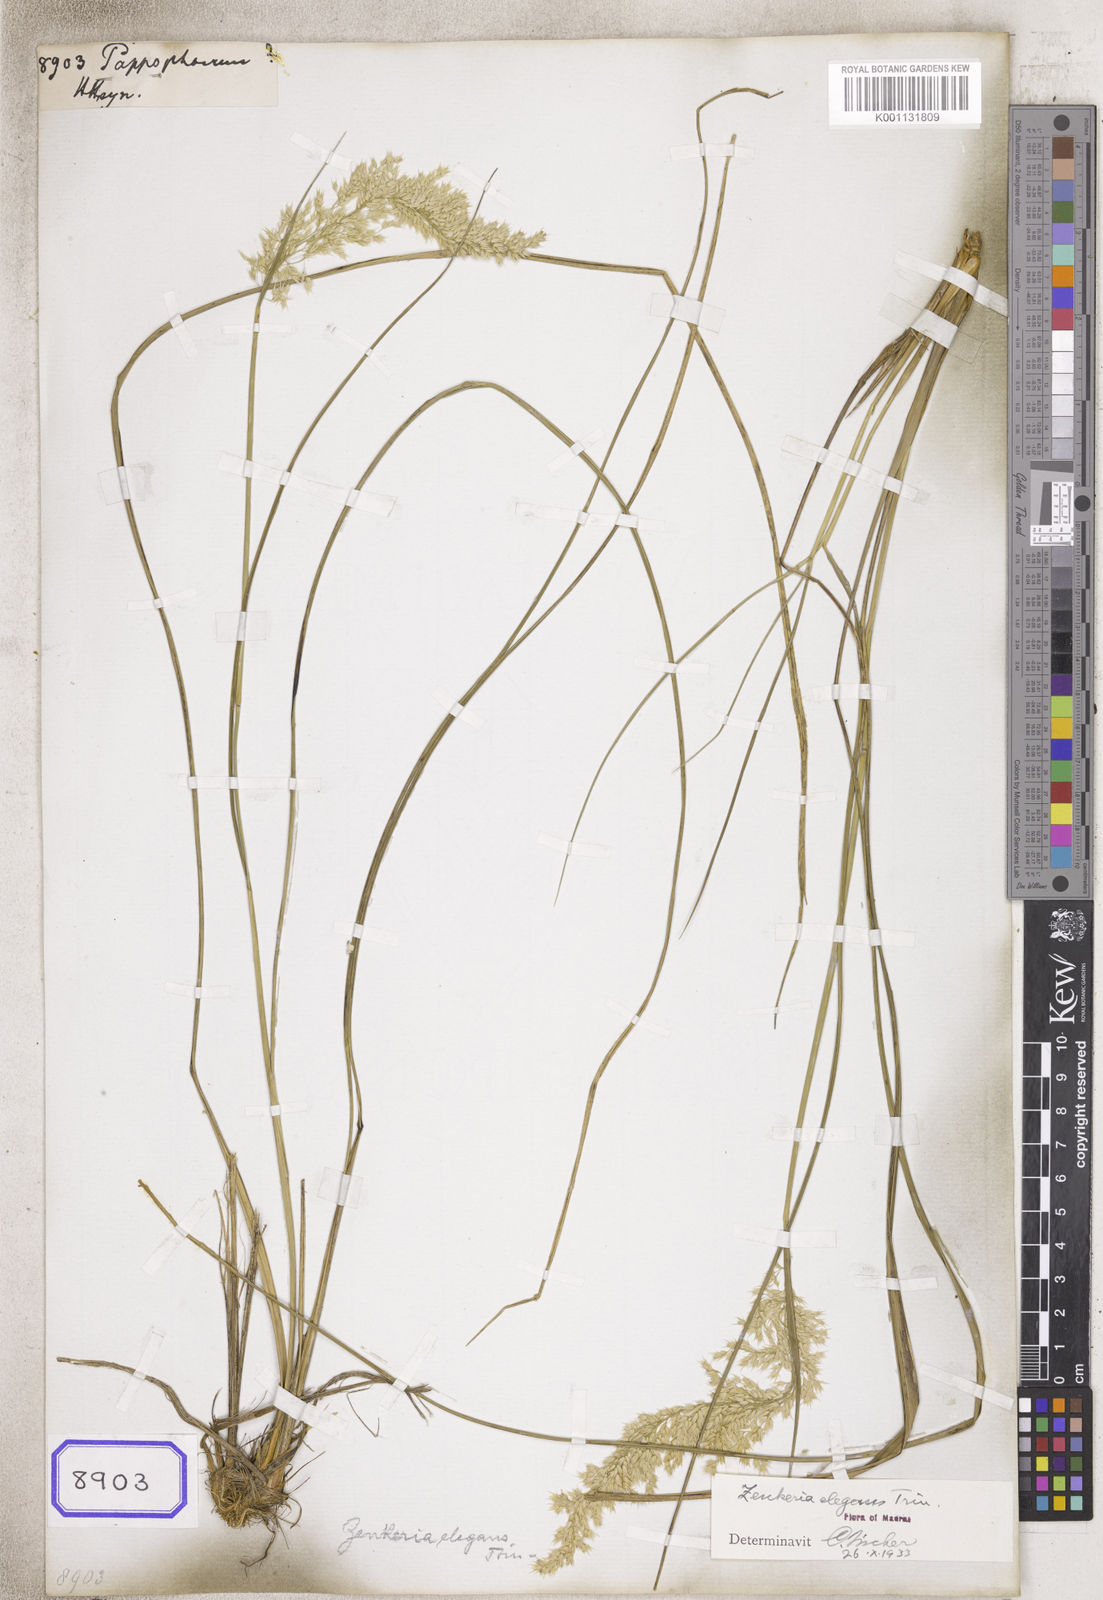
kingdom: Plantae
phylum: Tracheophyta
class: Liliopsida
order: Poales
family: Poaceae
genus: Pappophorum
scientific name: Pappophorum
